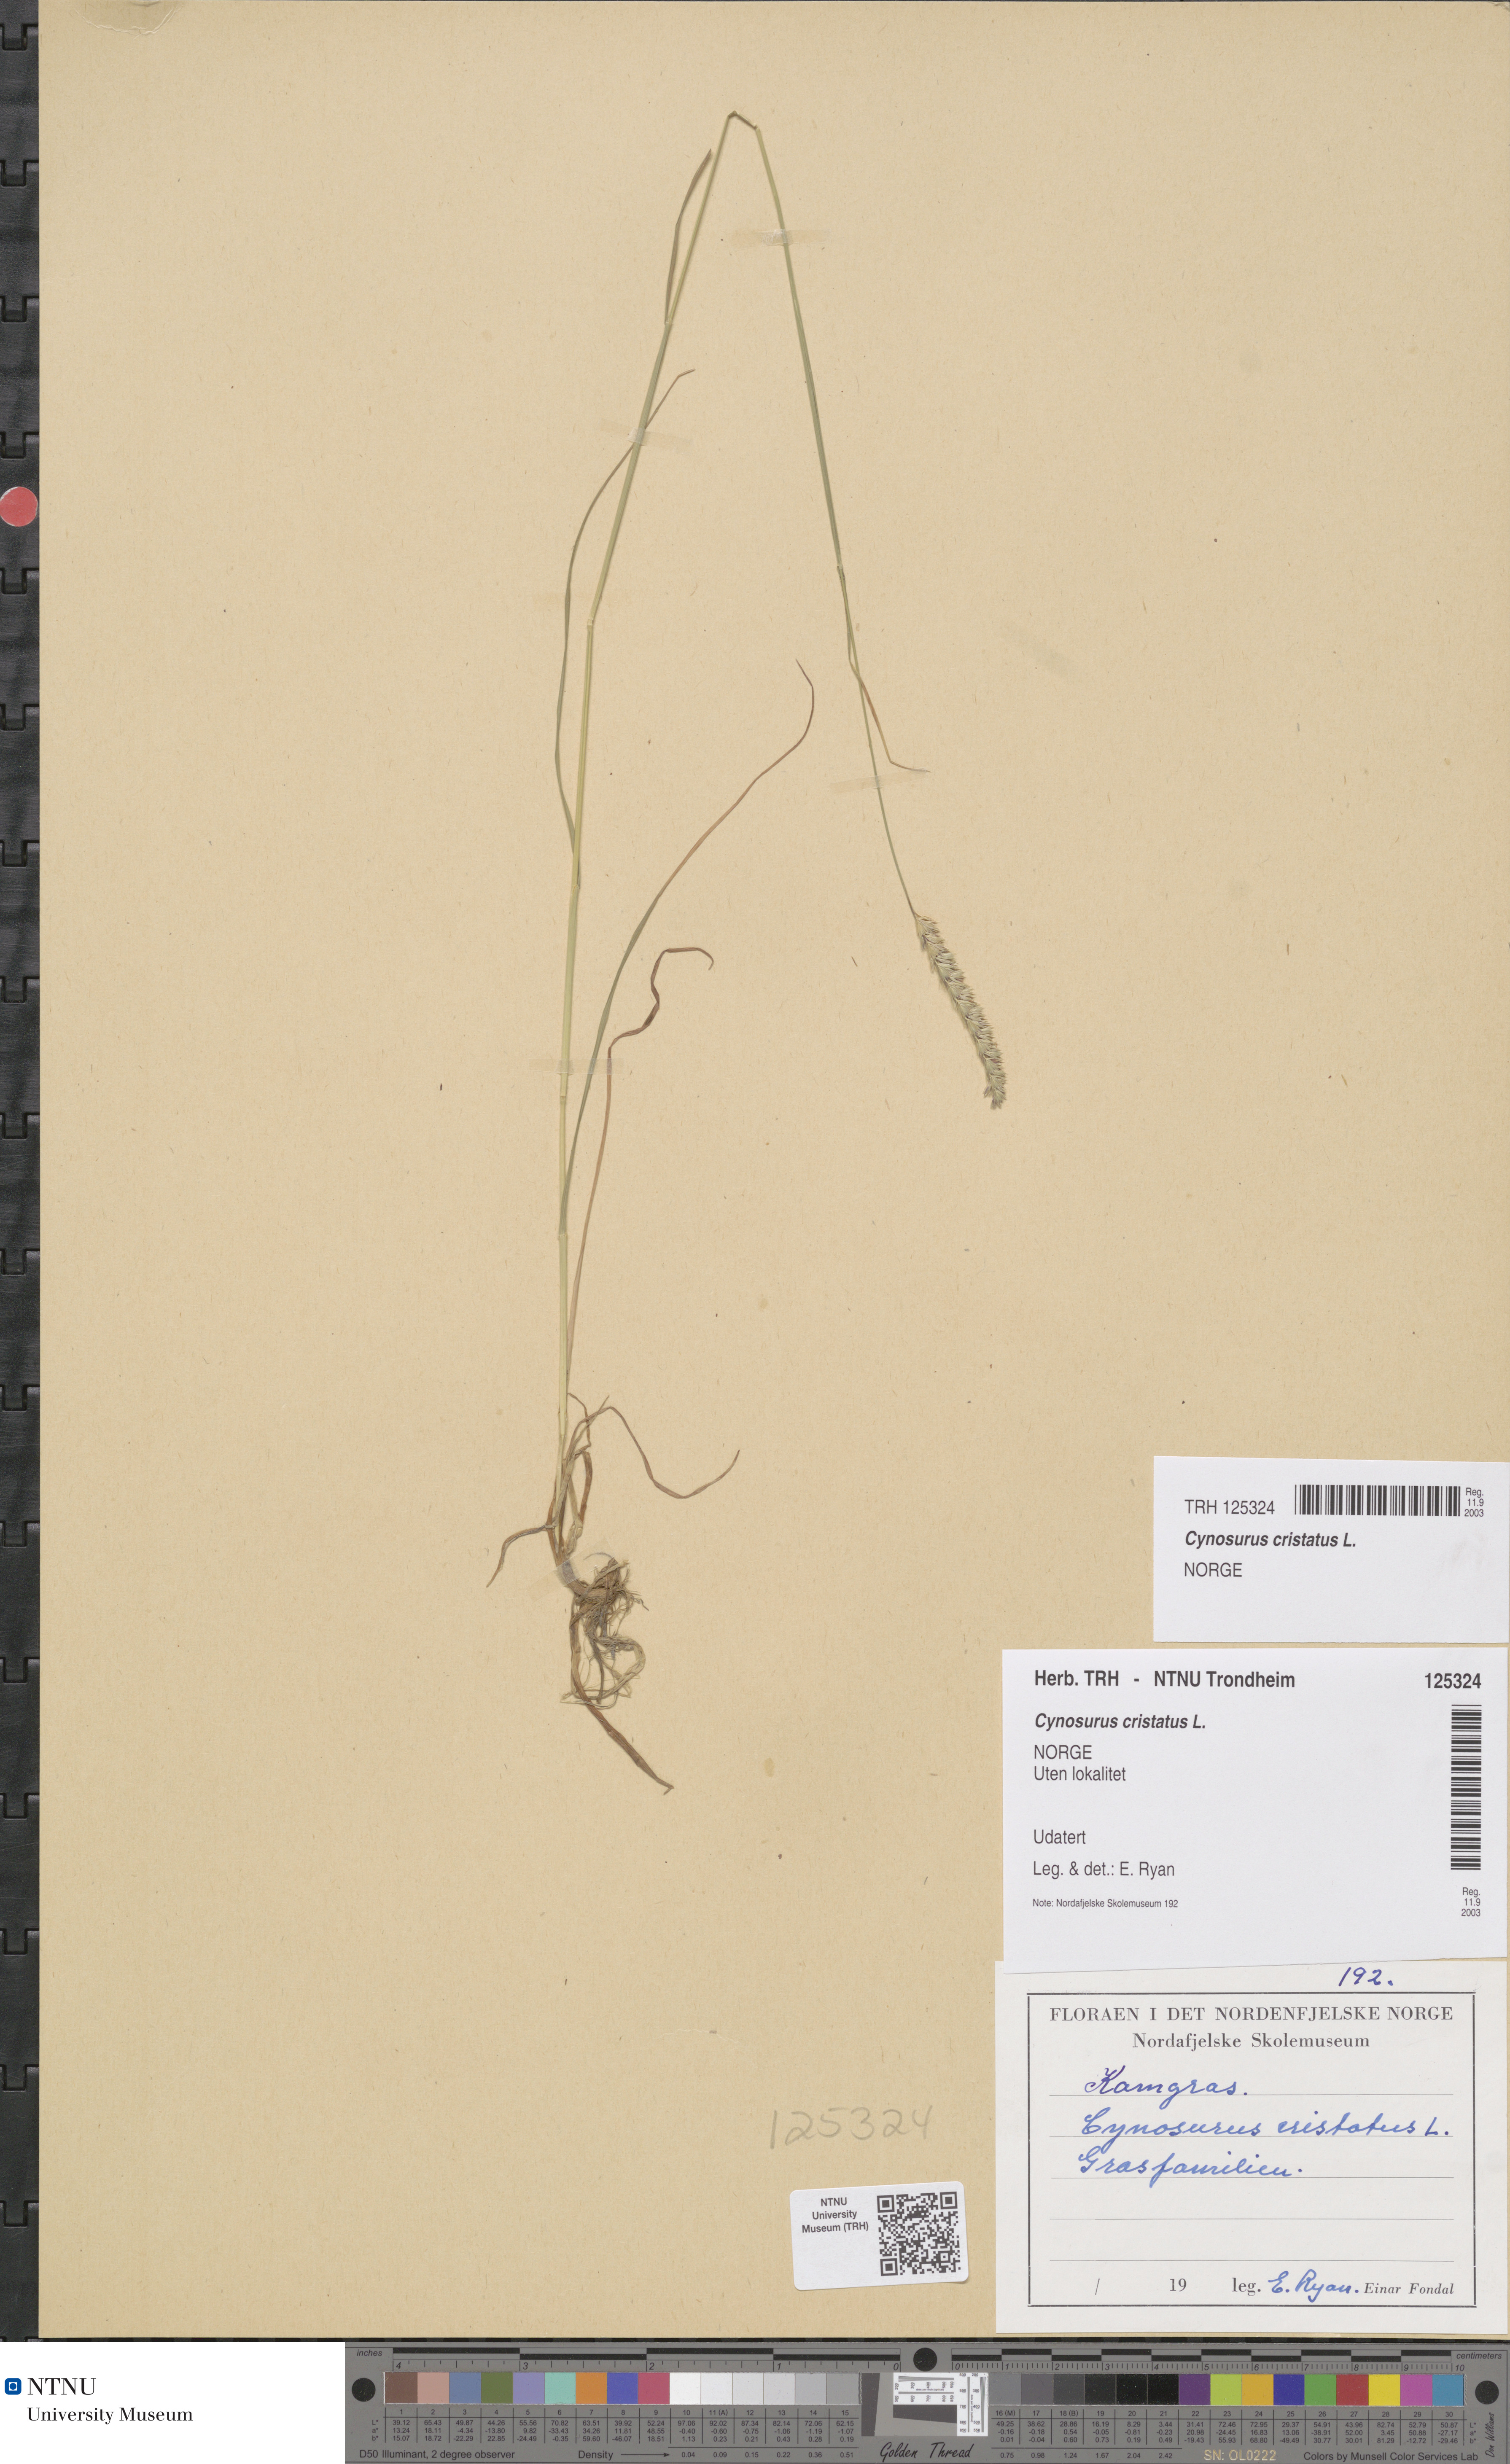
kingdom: Plantae
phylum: Tracheophyta
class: Liliopsida
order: Poales
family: Poaceae
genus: Cynosurus
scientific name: Cynosurus cristatus
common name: Crested dog's-tail
